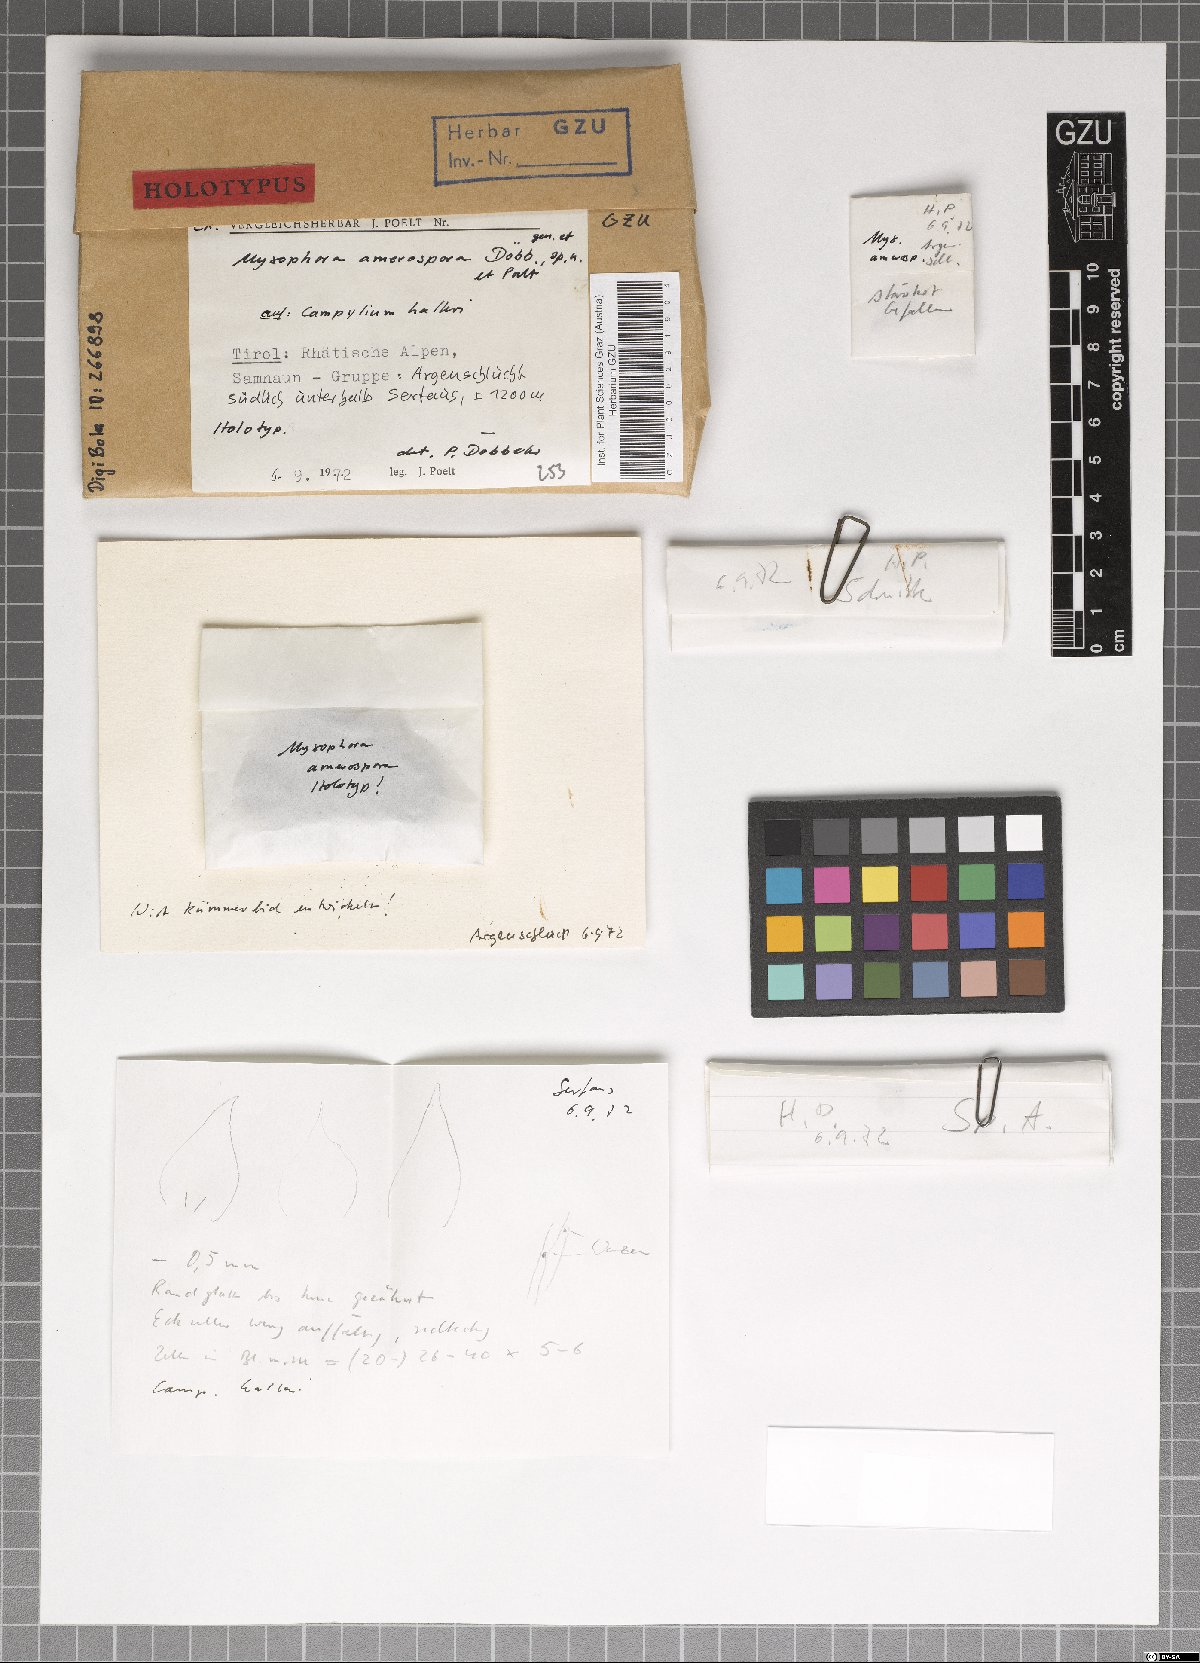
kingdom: Fungi
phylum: Ascomycota
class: Dothideomycetes
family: Pseudoperisporiaceae
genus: Myxophora
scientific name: Myxophora amerospora
